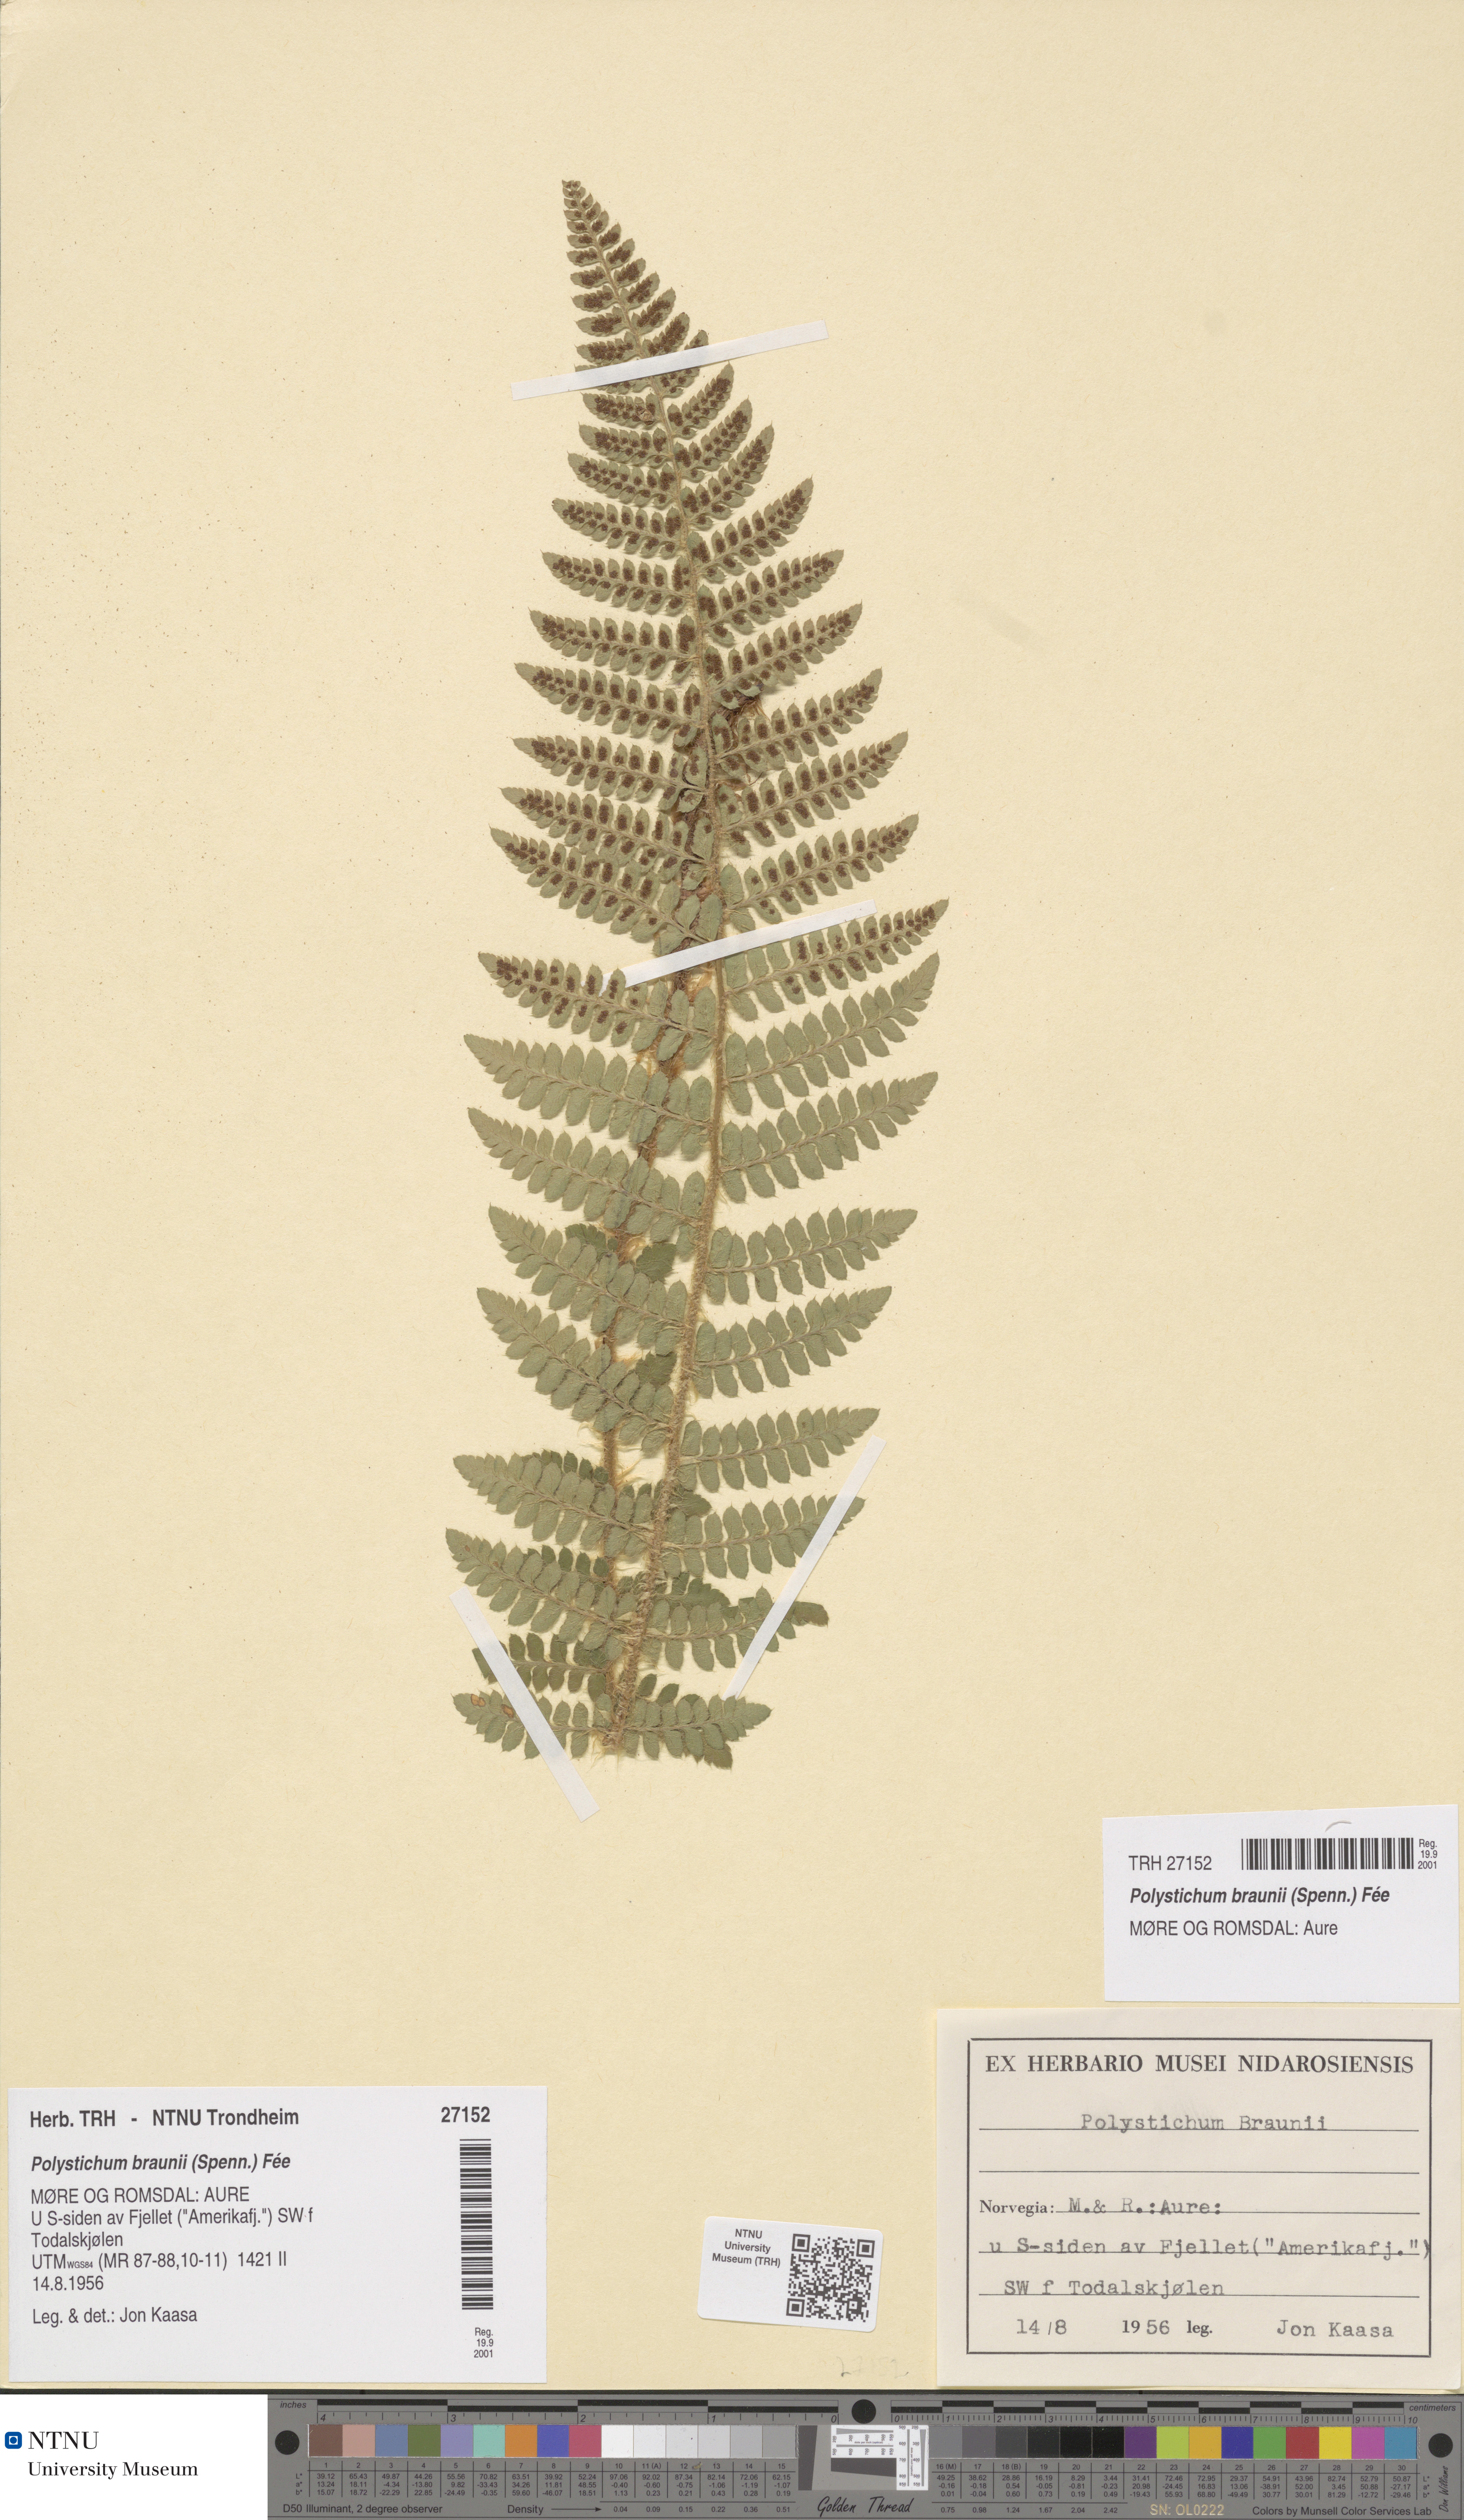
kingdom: Plantae
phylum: Tracheophyta
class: Polypodiopsida
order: Polypodiales
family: Dryopteridaceae
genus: Polystichum
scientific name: Polystichum braunii
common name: Braun's holly fern
